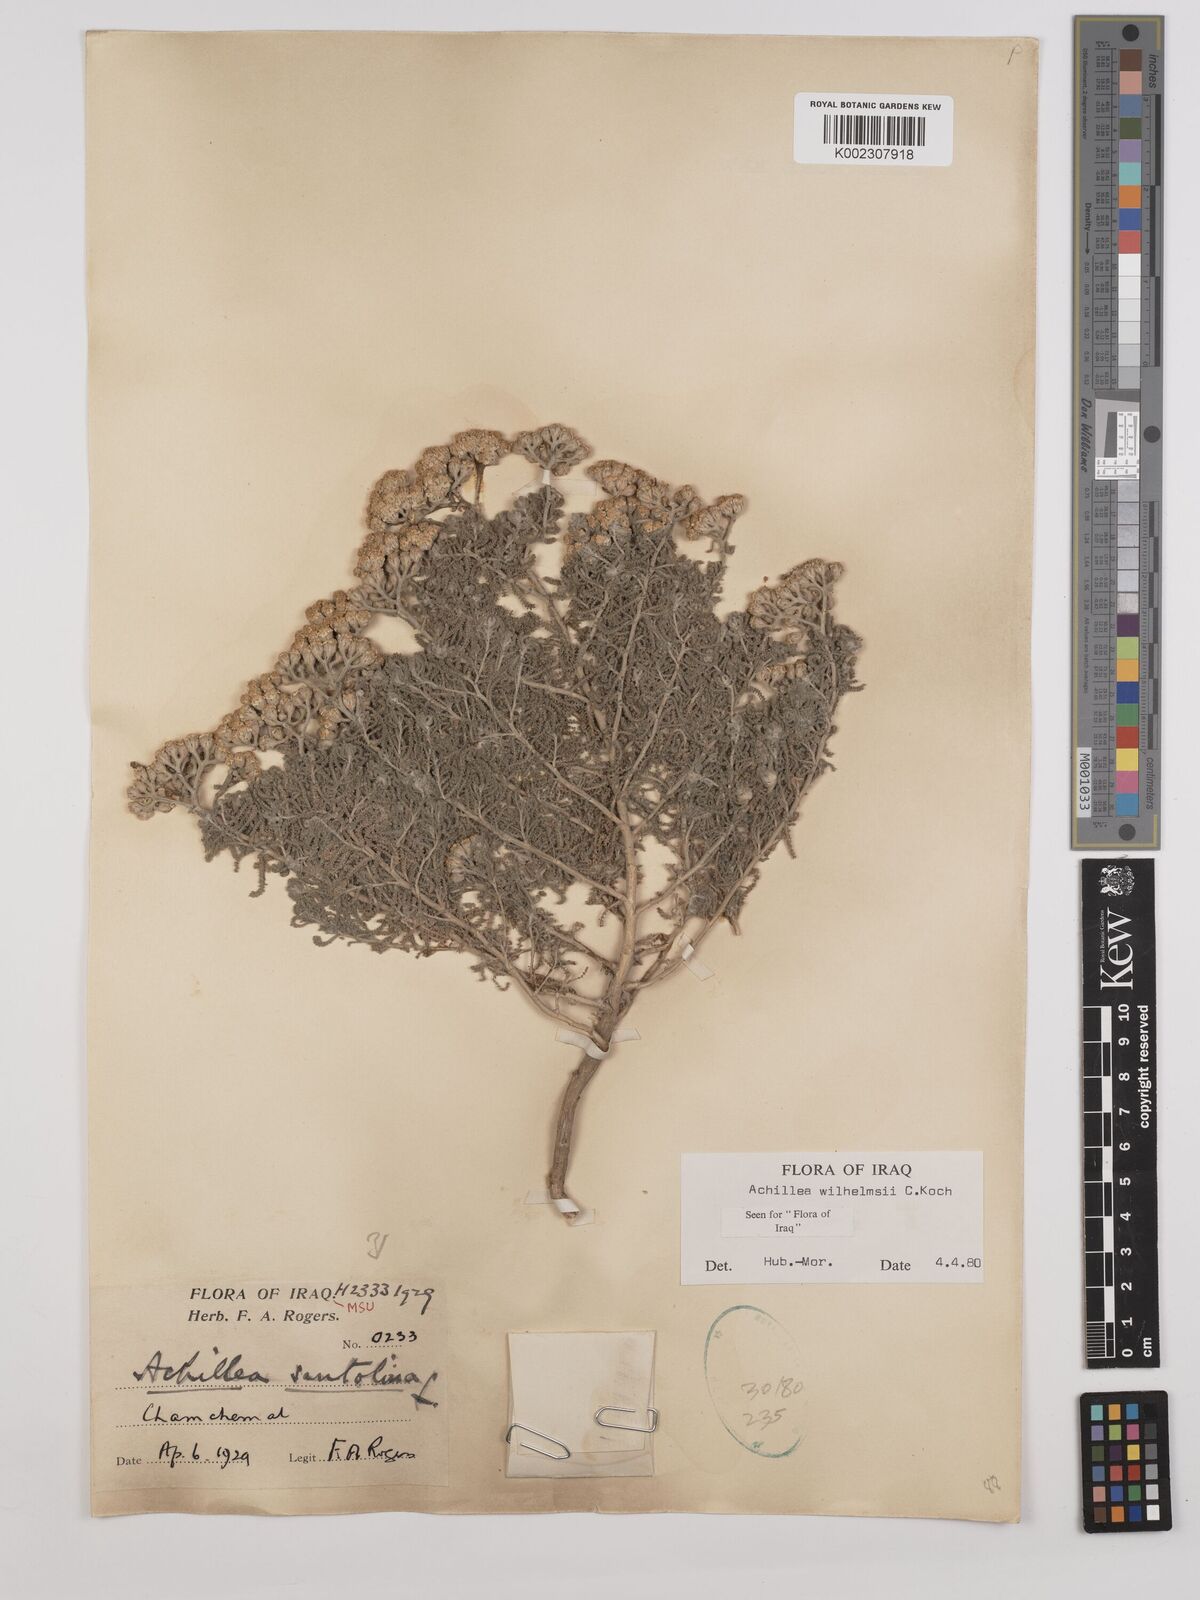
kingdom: Plantae
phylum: Tracheophyta
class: Magnoliopsida
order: Asterales
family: Asteraceae
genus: Achillea
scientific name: Achillea wilhelmsii
